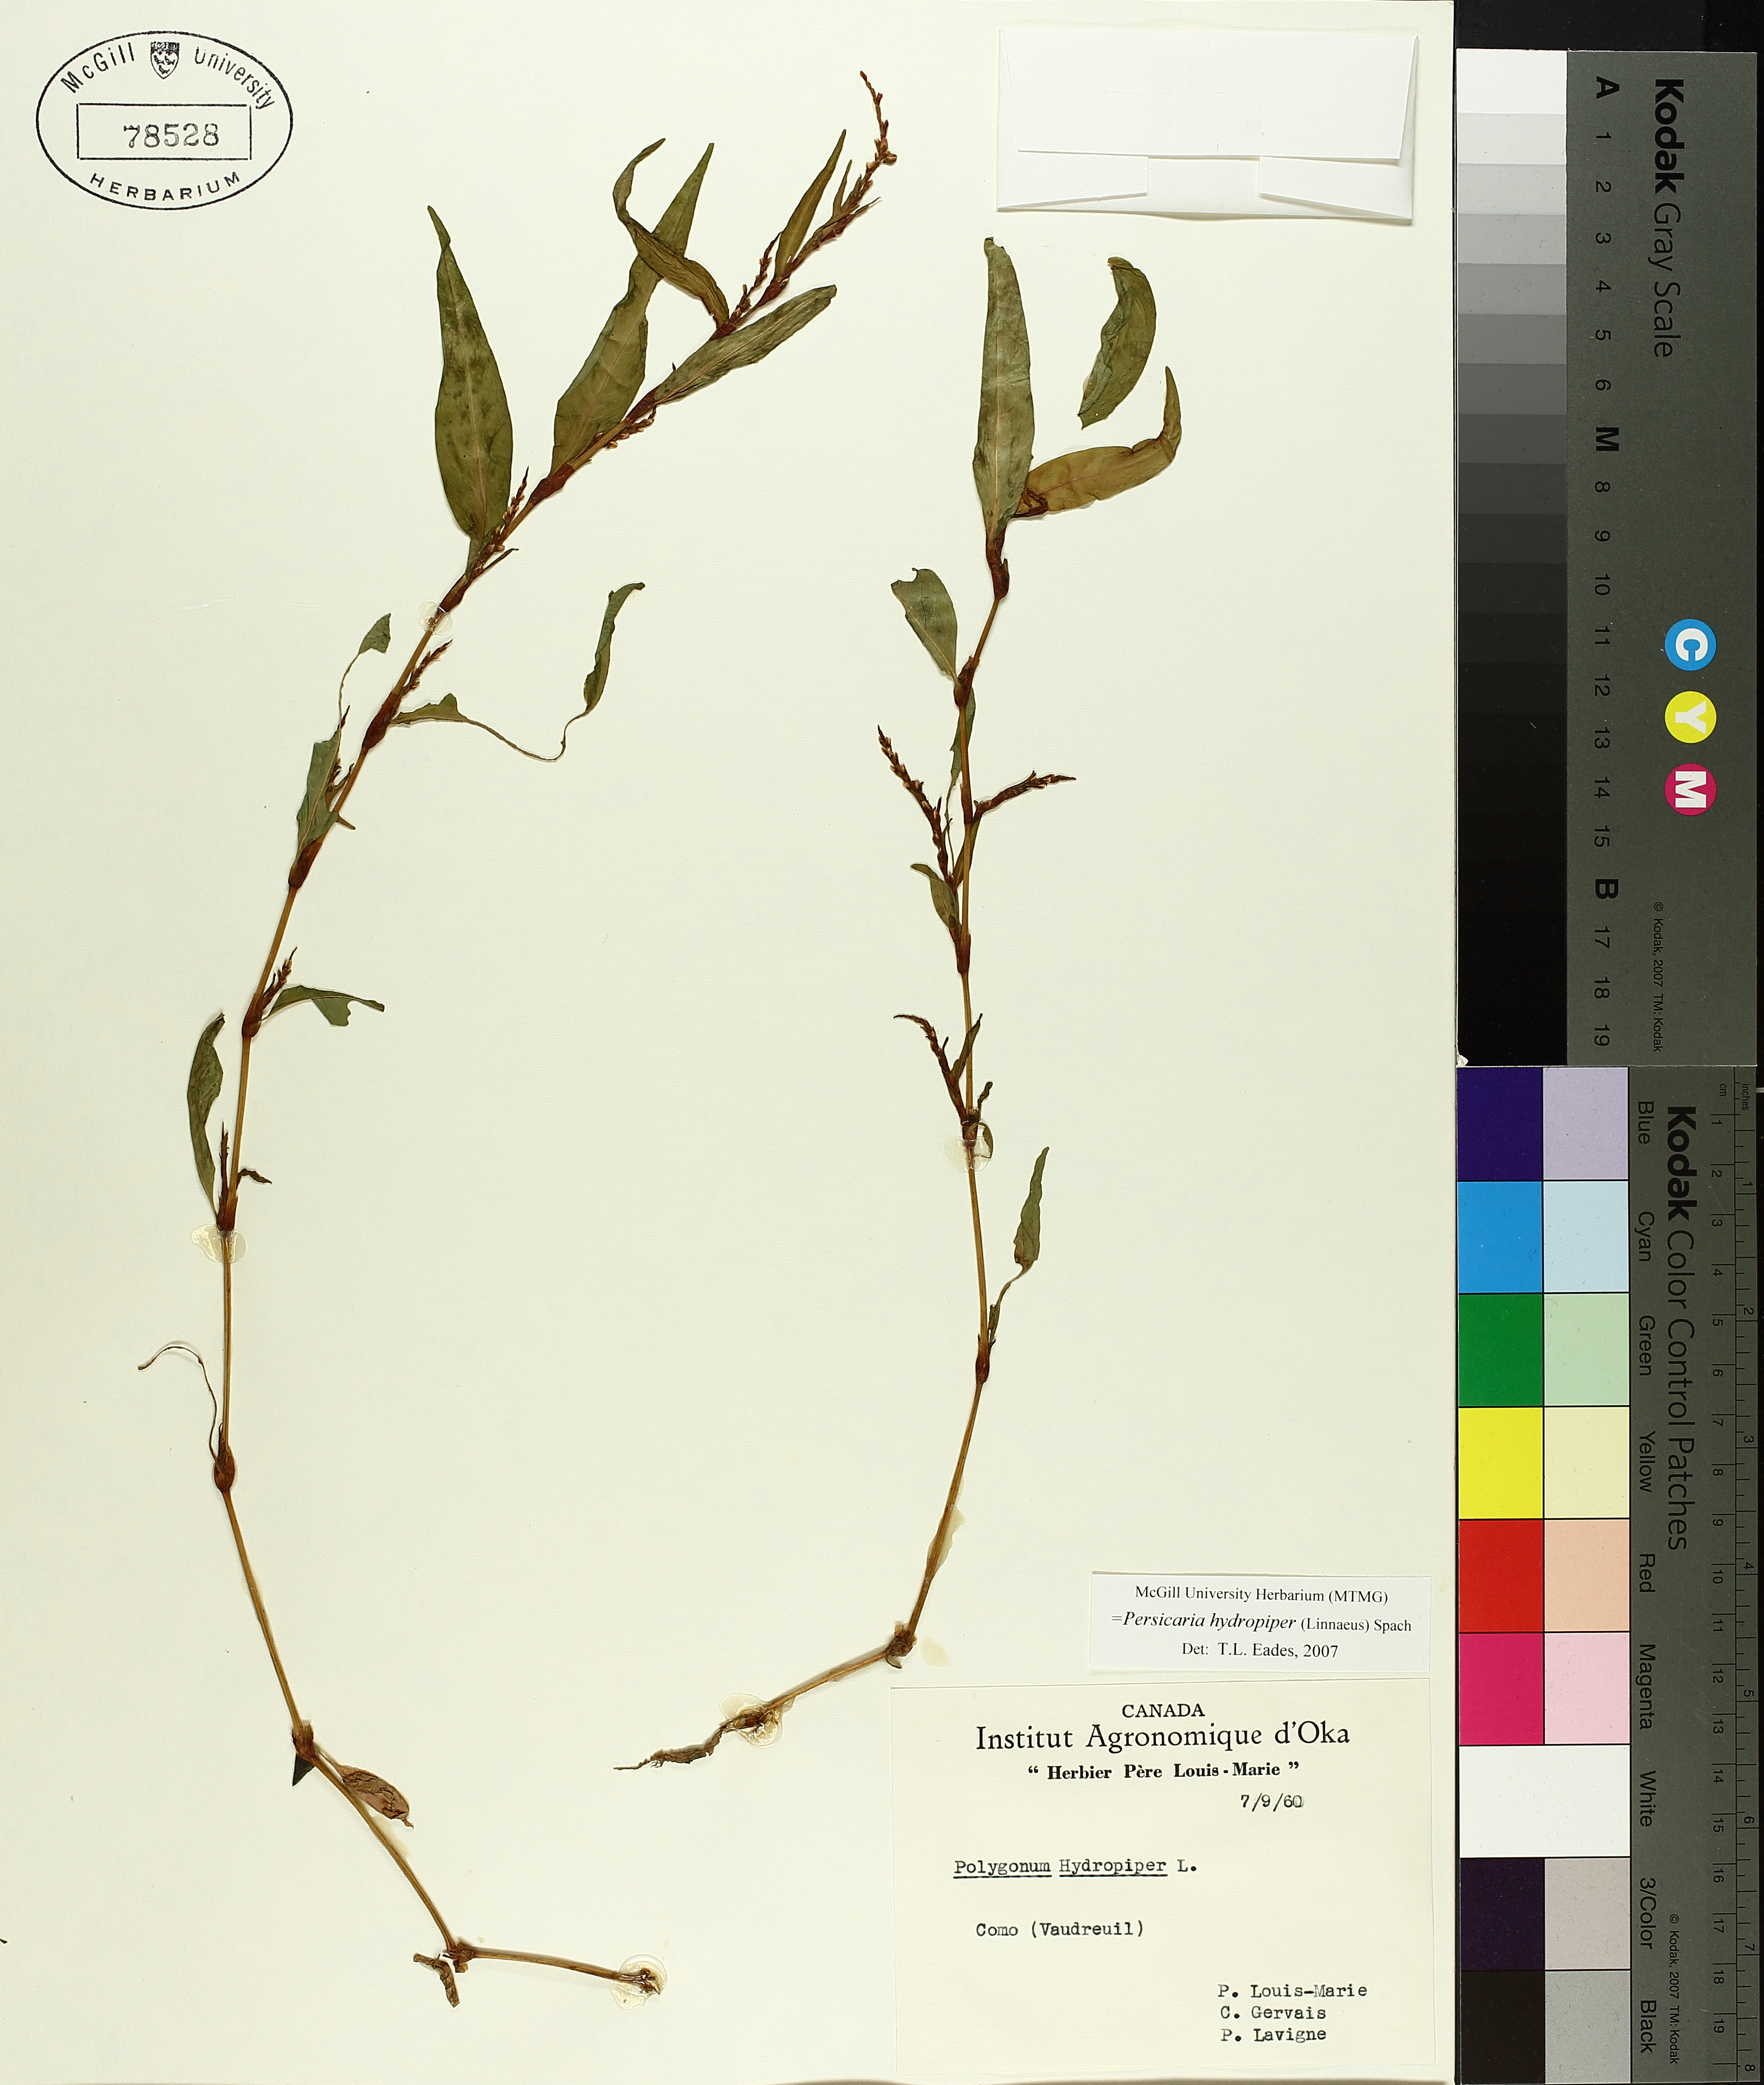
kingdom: Plantae
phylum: Tracheophyta
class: Magnoliopsida
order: Caryophyllales
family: Polygonaceae
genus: Persicaria
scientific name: Persicaria hydropiper
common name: Water-pepper
